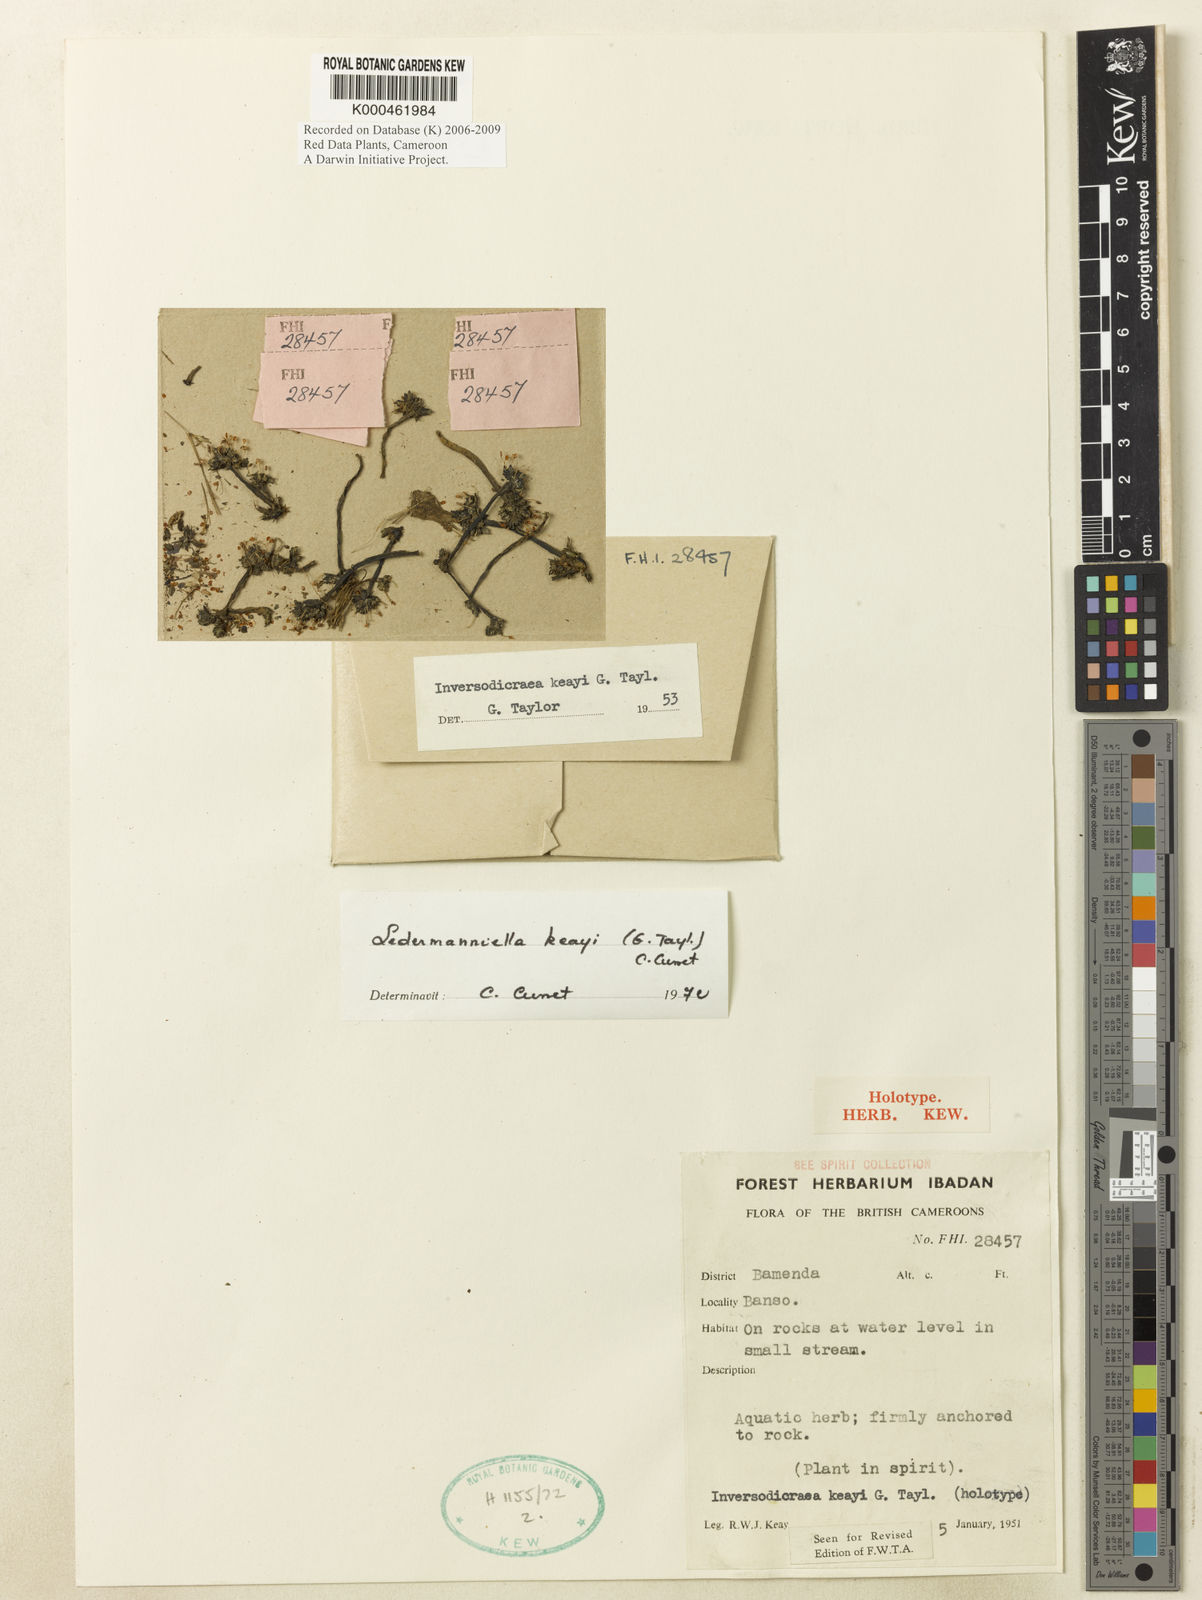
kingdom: Plantae
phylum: Tracheophyta
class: Magnoliopsida
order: Malpighiales
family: Podostemaceae
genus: Ledermanniella
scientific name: Ledermanniella keayi
